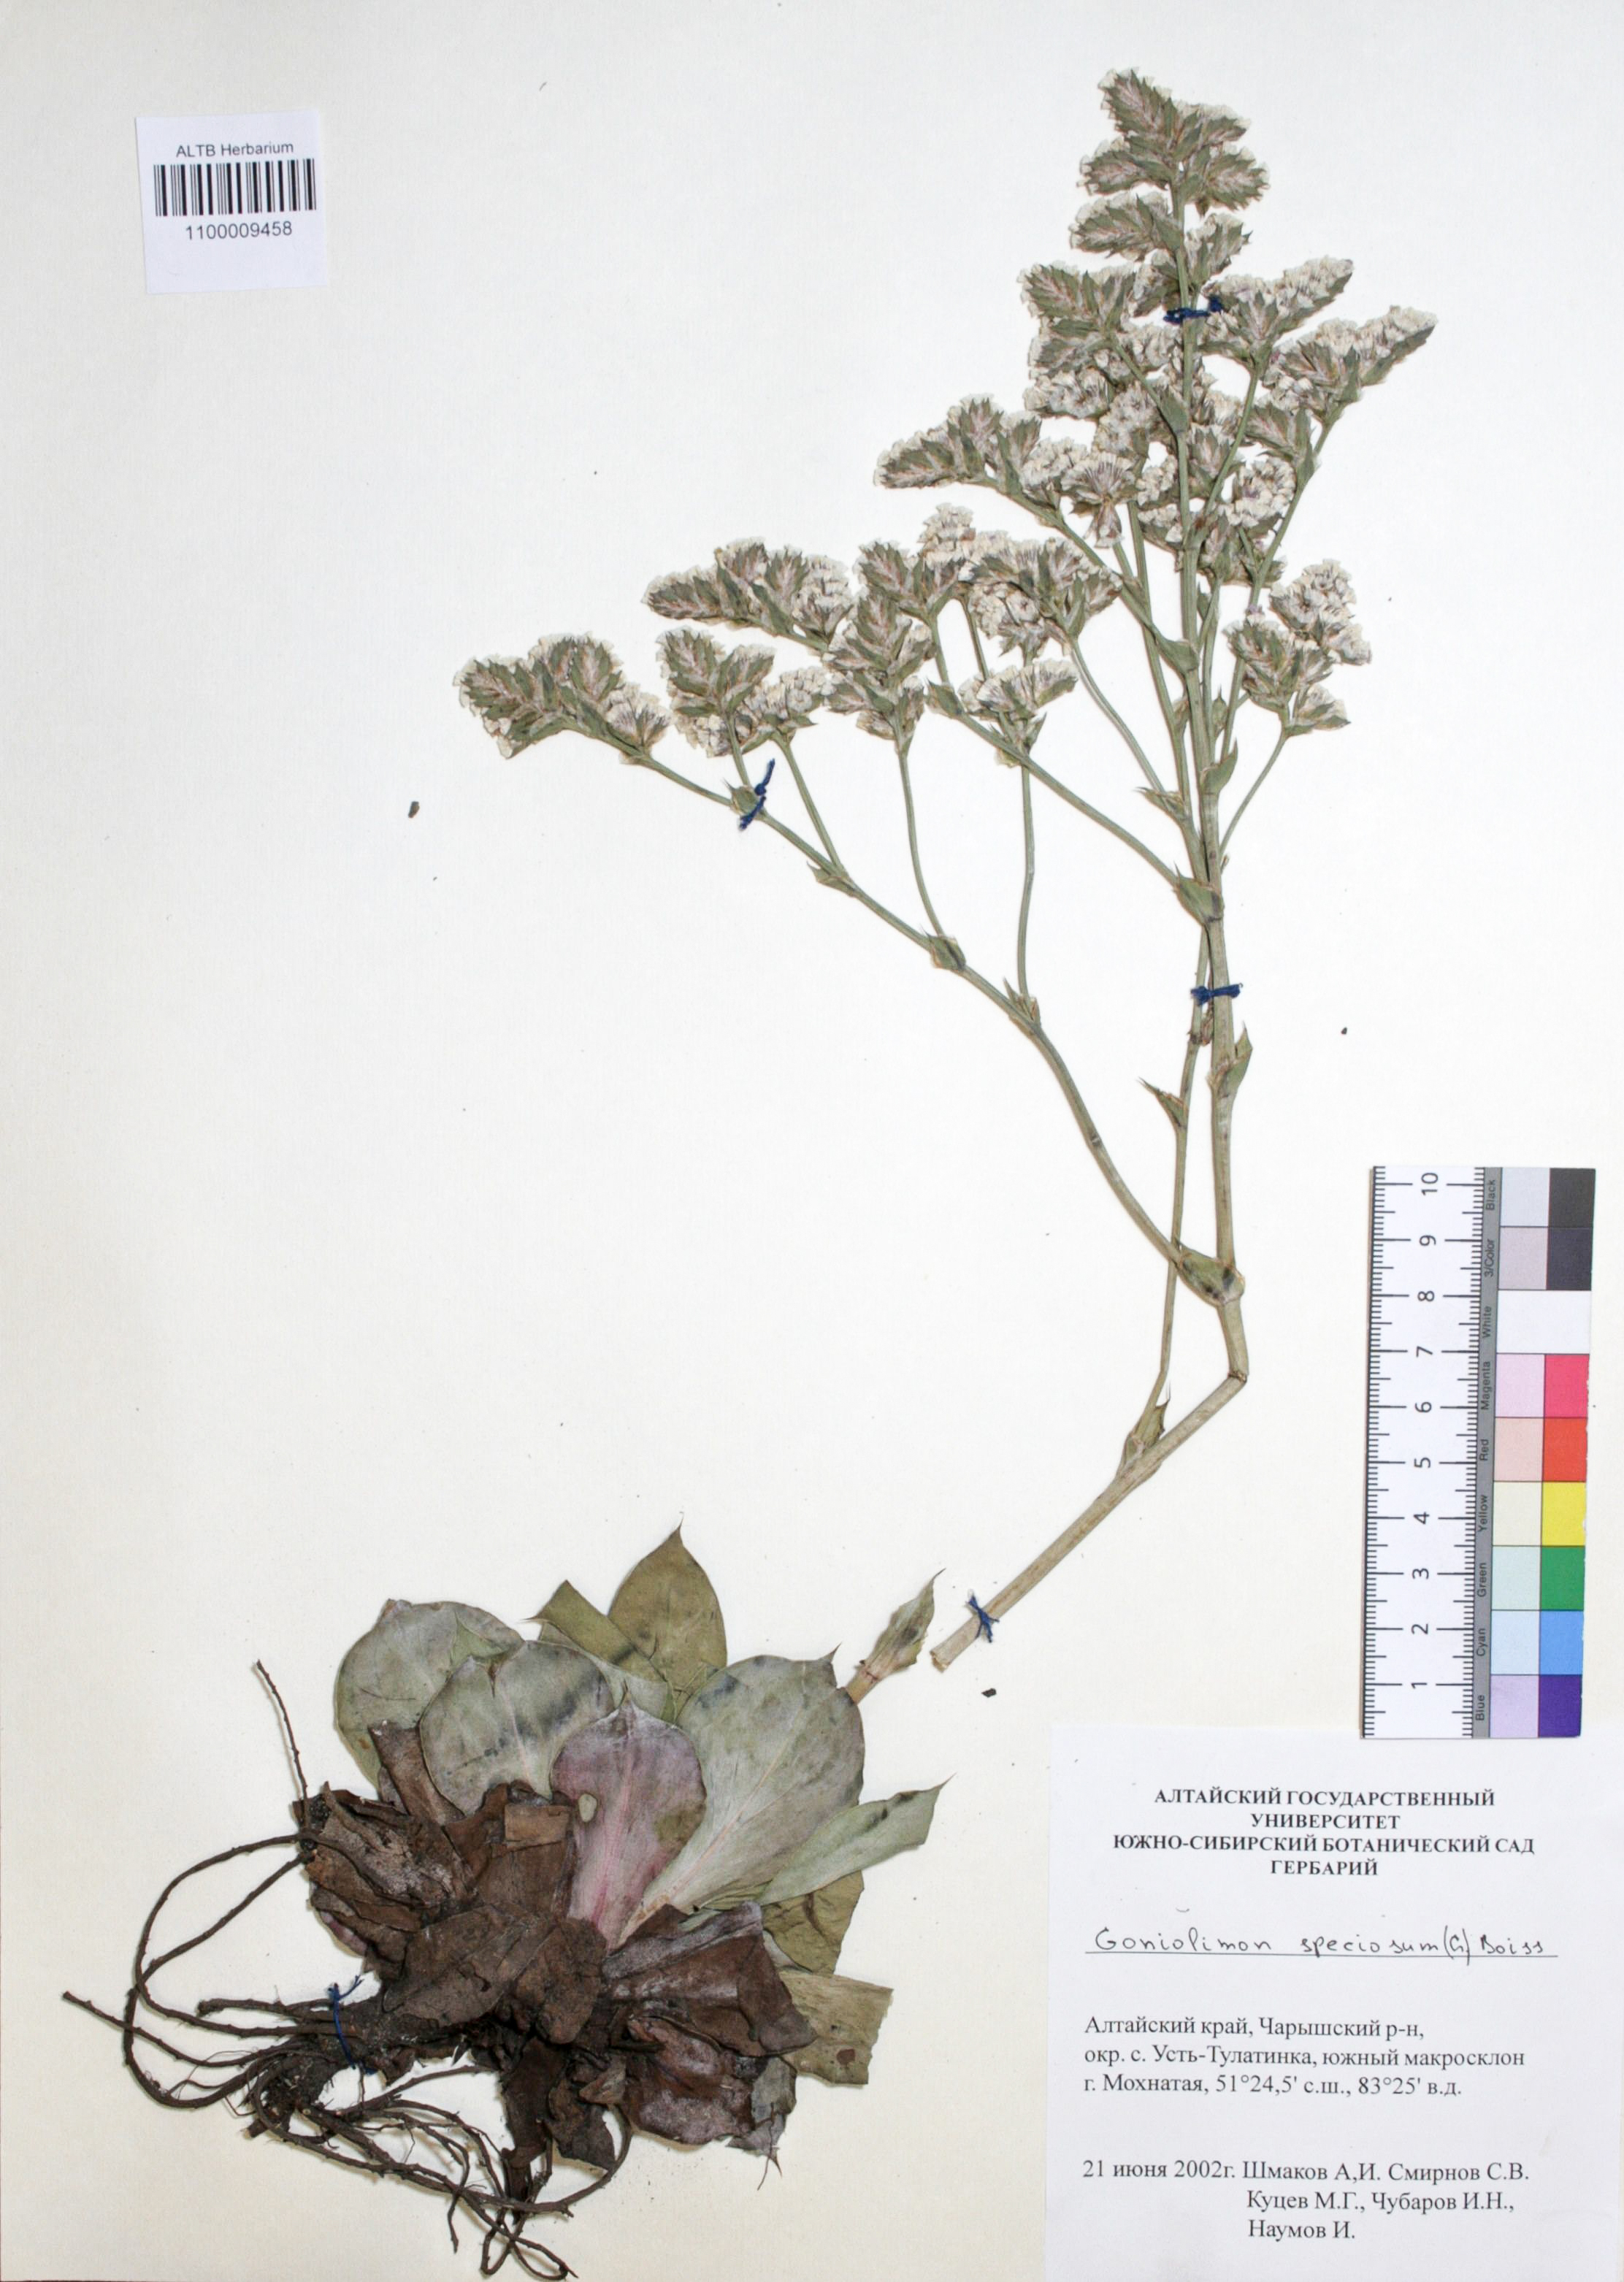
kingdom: Plantae
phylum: Tracheophyta
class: Magnoliopsida
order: Caryophyllales
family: Plumbaginaceae
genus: Goniolimon
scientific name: Goniolimon speciosum
